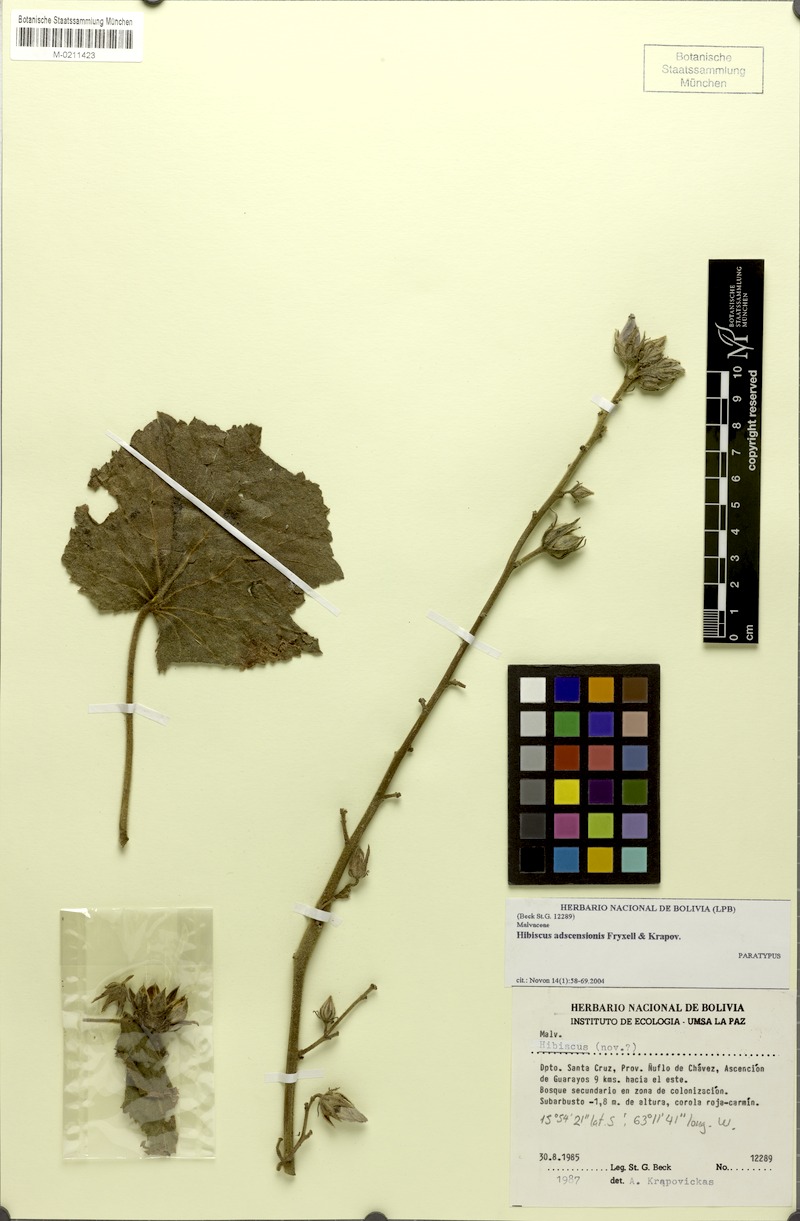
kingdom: Plantae
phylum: Tracheophyta
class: Magnoliopsida
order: Malvales
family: Malvaceae
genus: Hibiscus
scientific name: Hibiscus adscensionis
